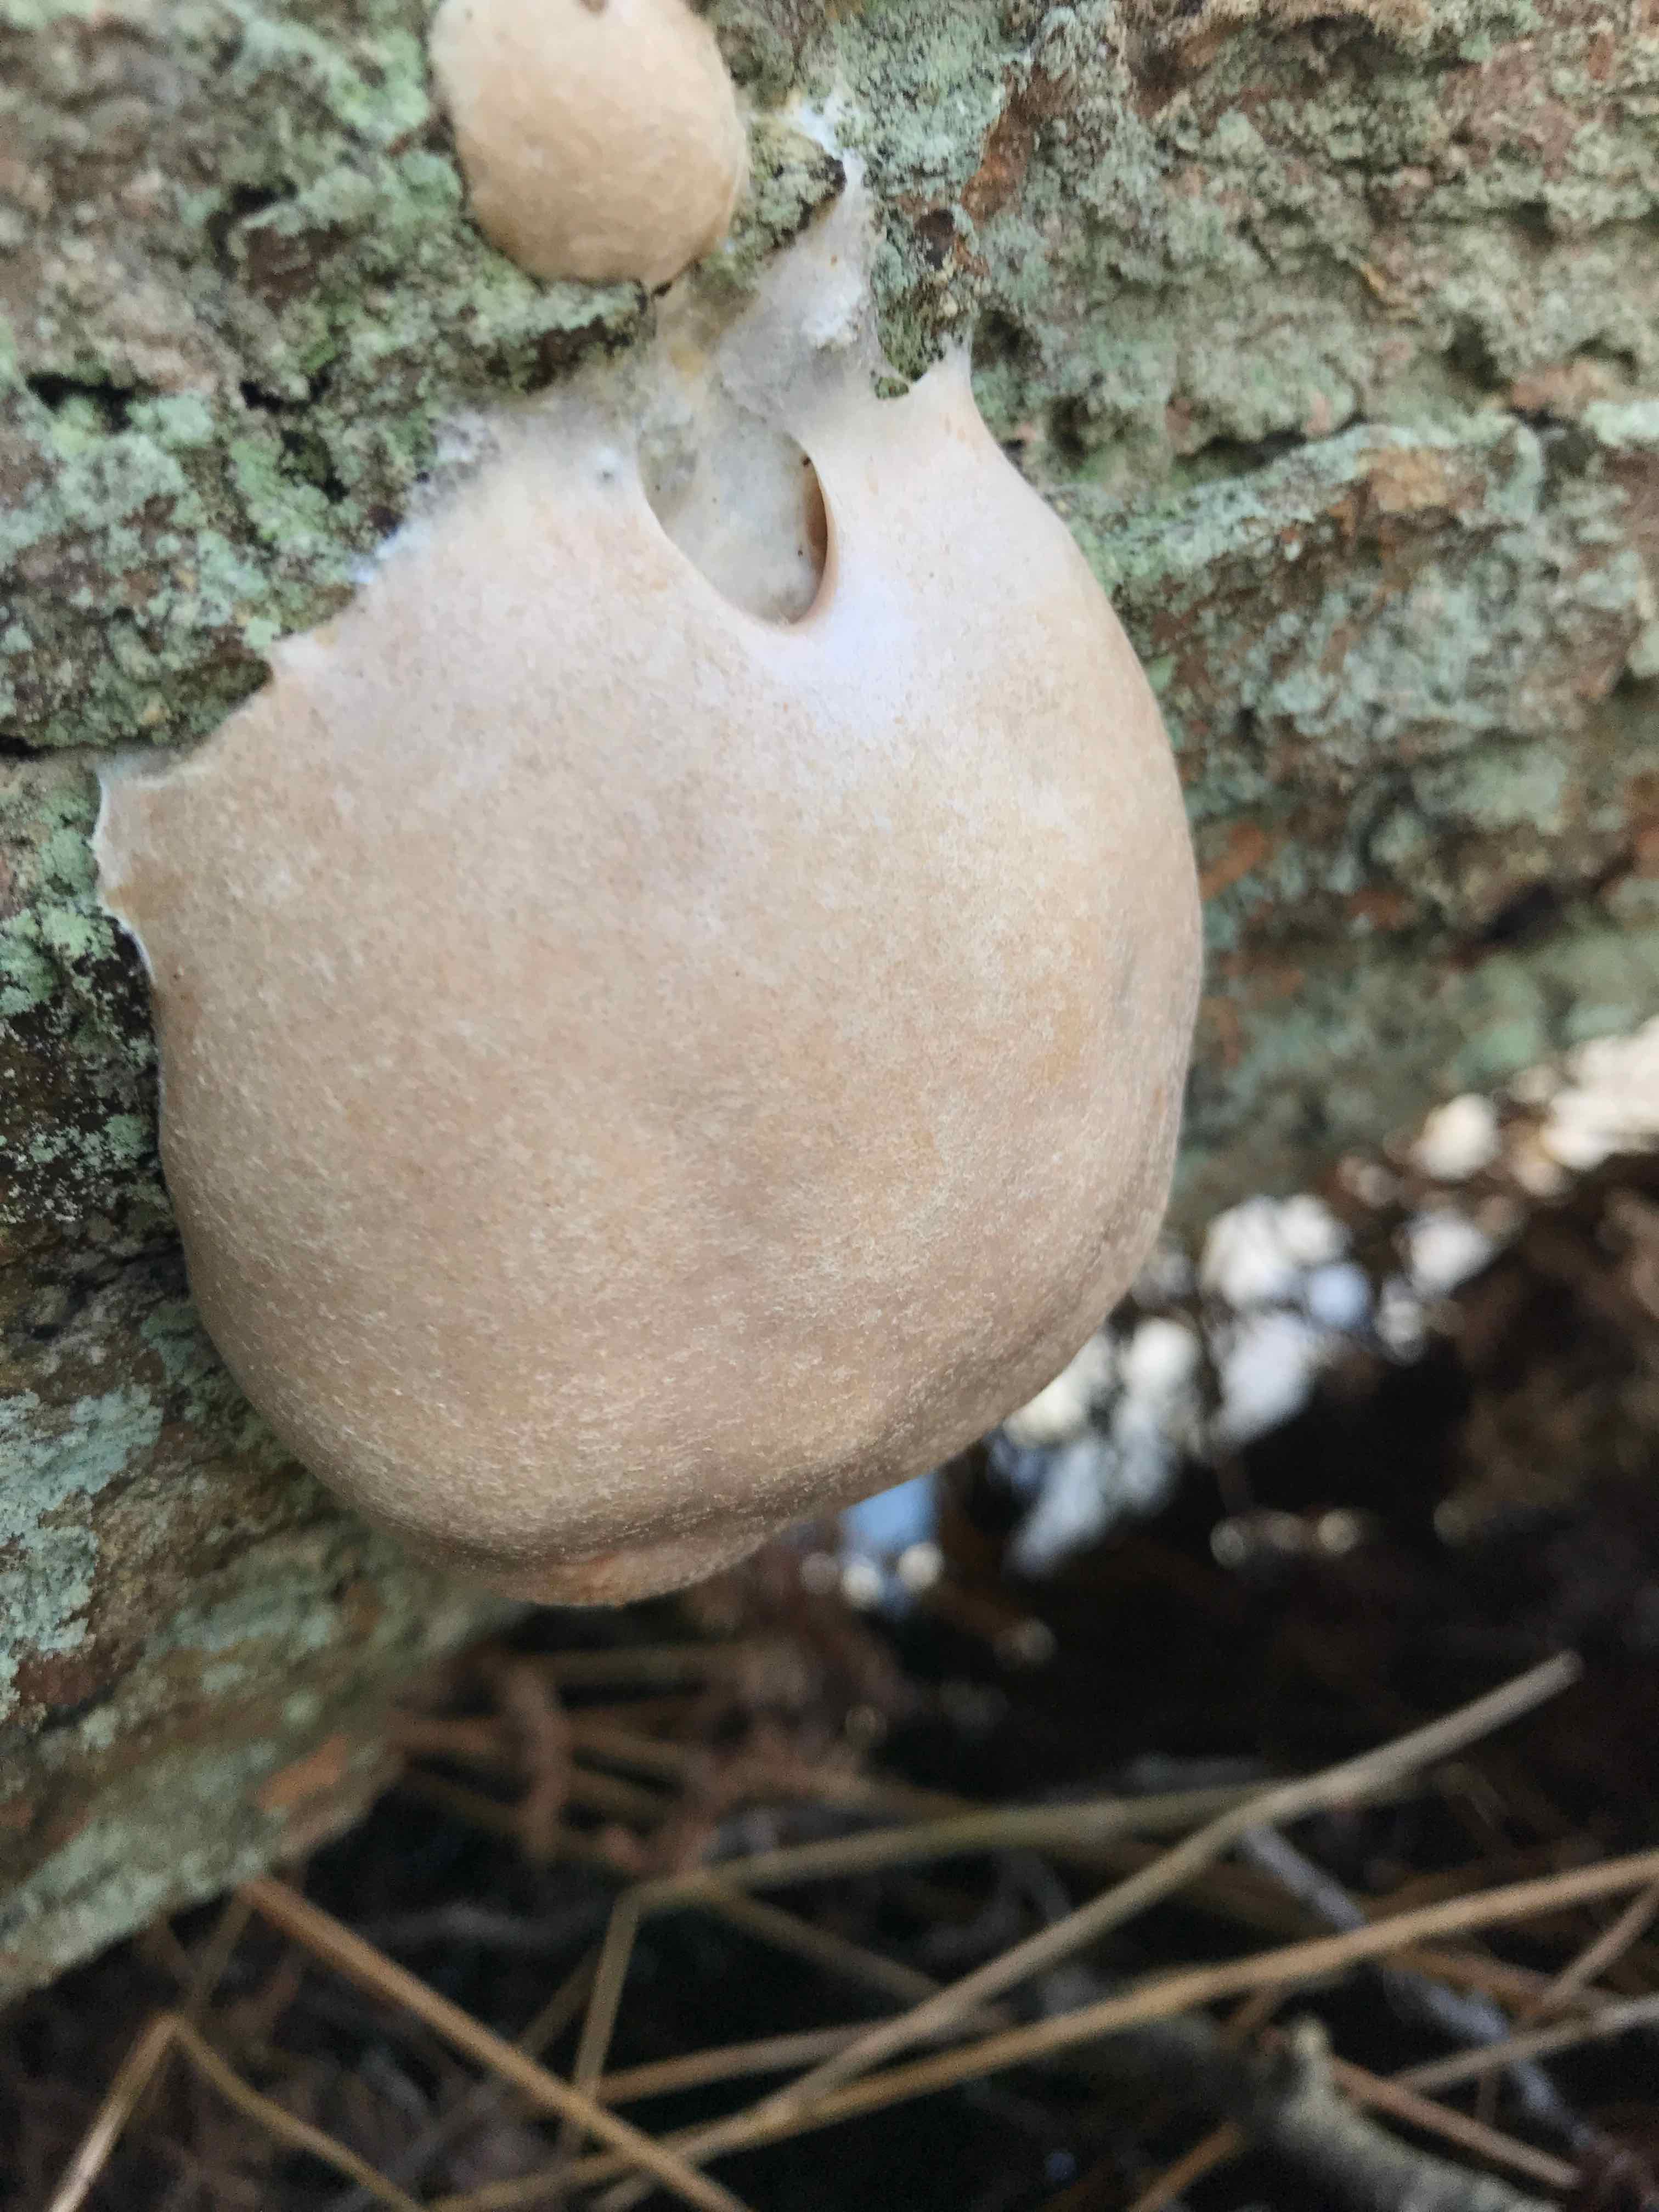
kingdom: Protozoa
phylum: Mycetozoa
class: Myxomycetes
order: Cribrariales
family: Tubiferaceae
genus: Reticularia
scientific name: Reticularia lycoperdon
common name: skinnende støvpude
